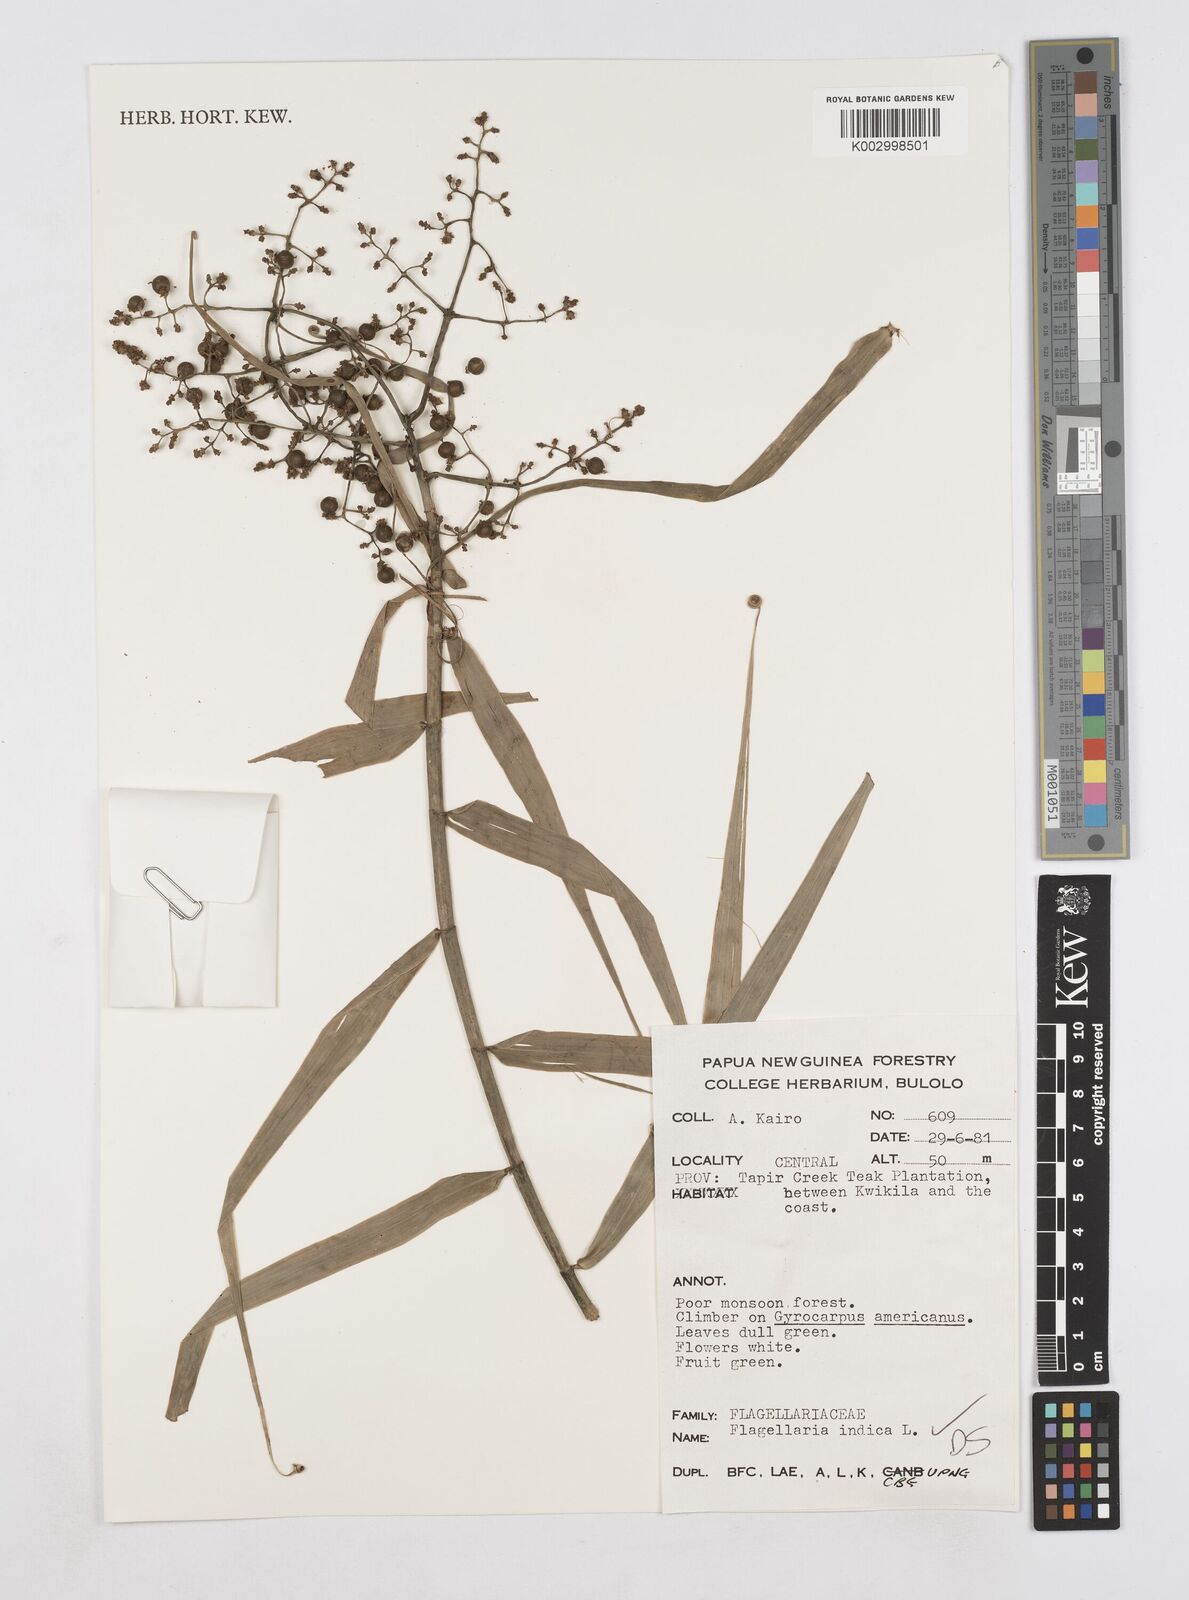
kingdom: Plantae
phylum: Tracheophyta
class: Liliopsida
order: Poales
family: Flagellariaceae
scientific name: Flagellariaceae
